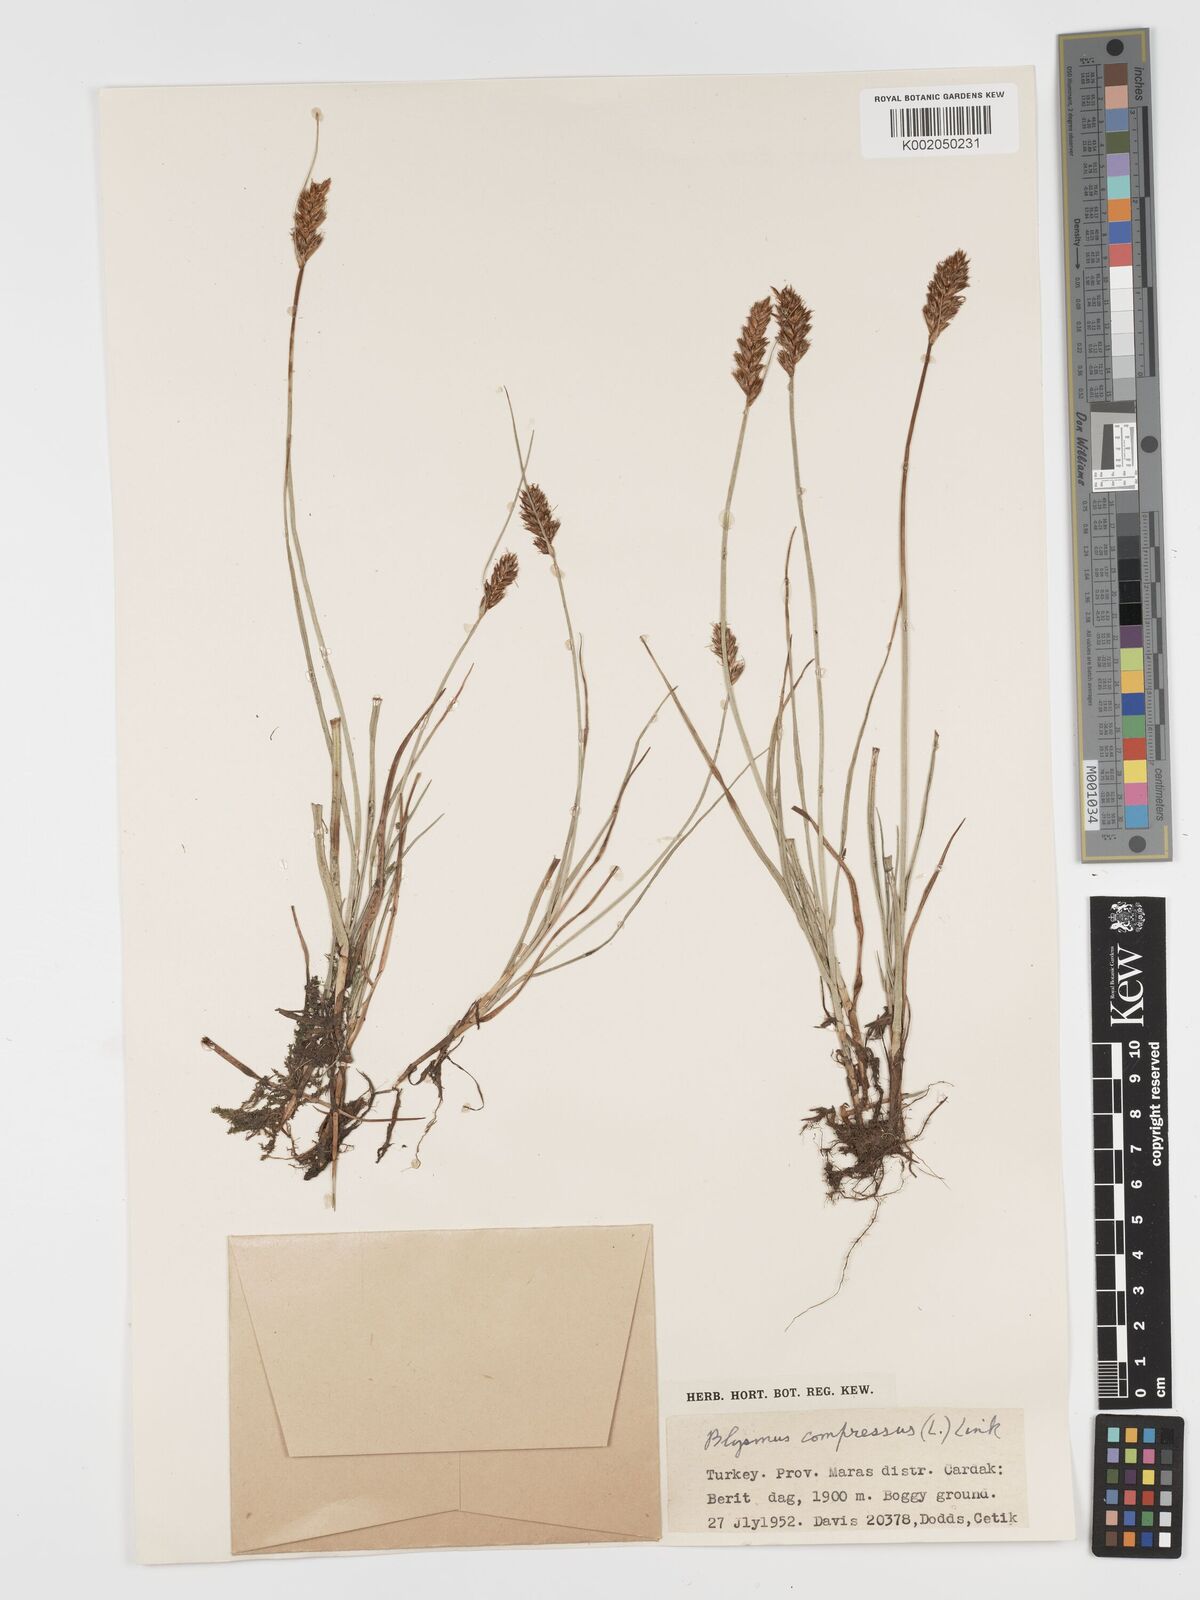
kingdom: Plantae
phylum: Tracheophyta
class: Liliopsida
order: Poales
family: Cyperaceae
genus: Blysmus
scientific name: Blysmus compressus
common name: Flat-sedge
